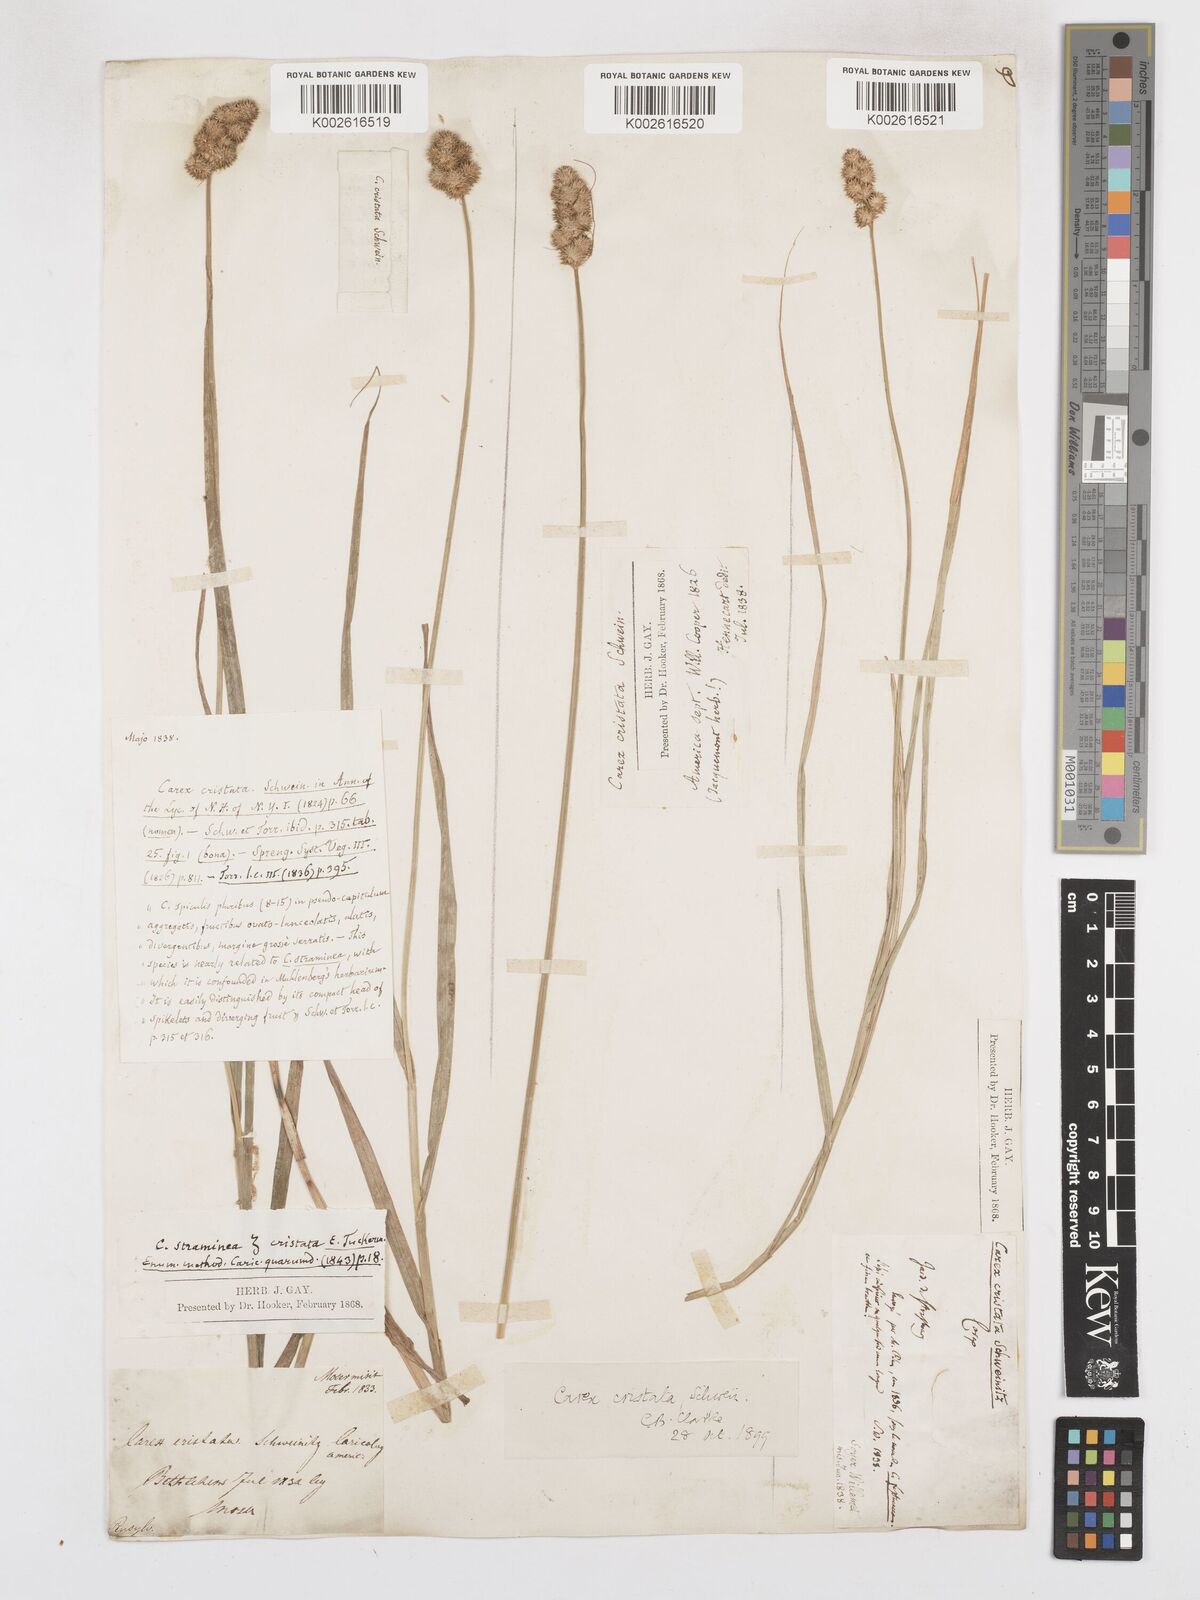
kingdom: Plantae
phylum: Tracheophyta
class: Liliopsida
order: Poales
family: Cyperaceae
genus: Carex
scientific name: Carex cristatella
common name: Crested oval sedge
